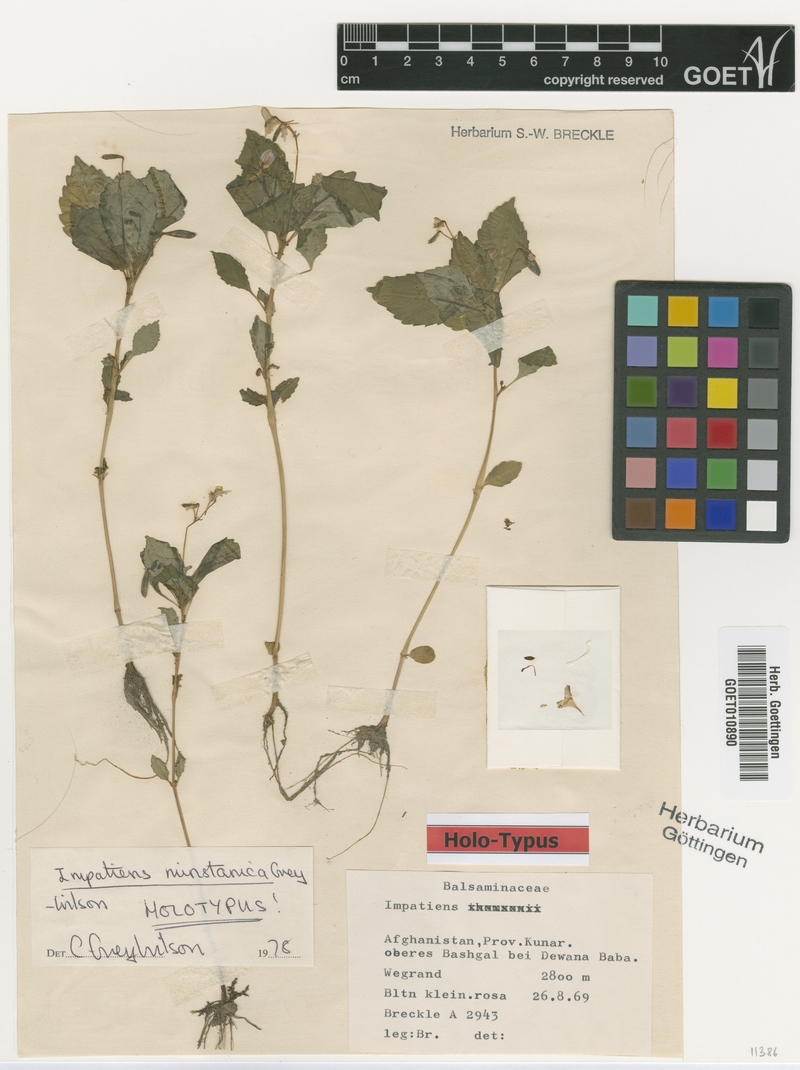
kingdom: Plantae
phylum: Tracheophyta
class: Magnoliopsida
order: Ericales
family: Balsaminaceae
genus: Impatiens
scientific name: Impatiens nuristanica
